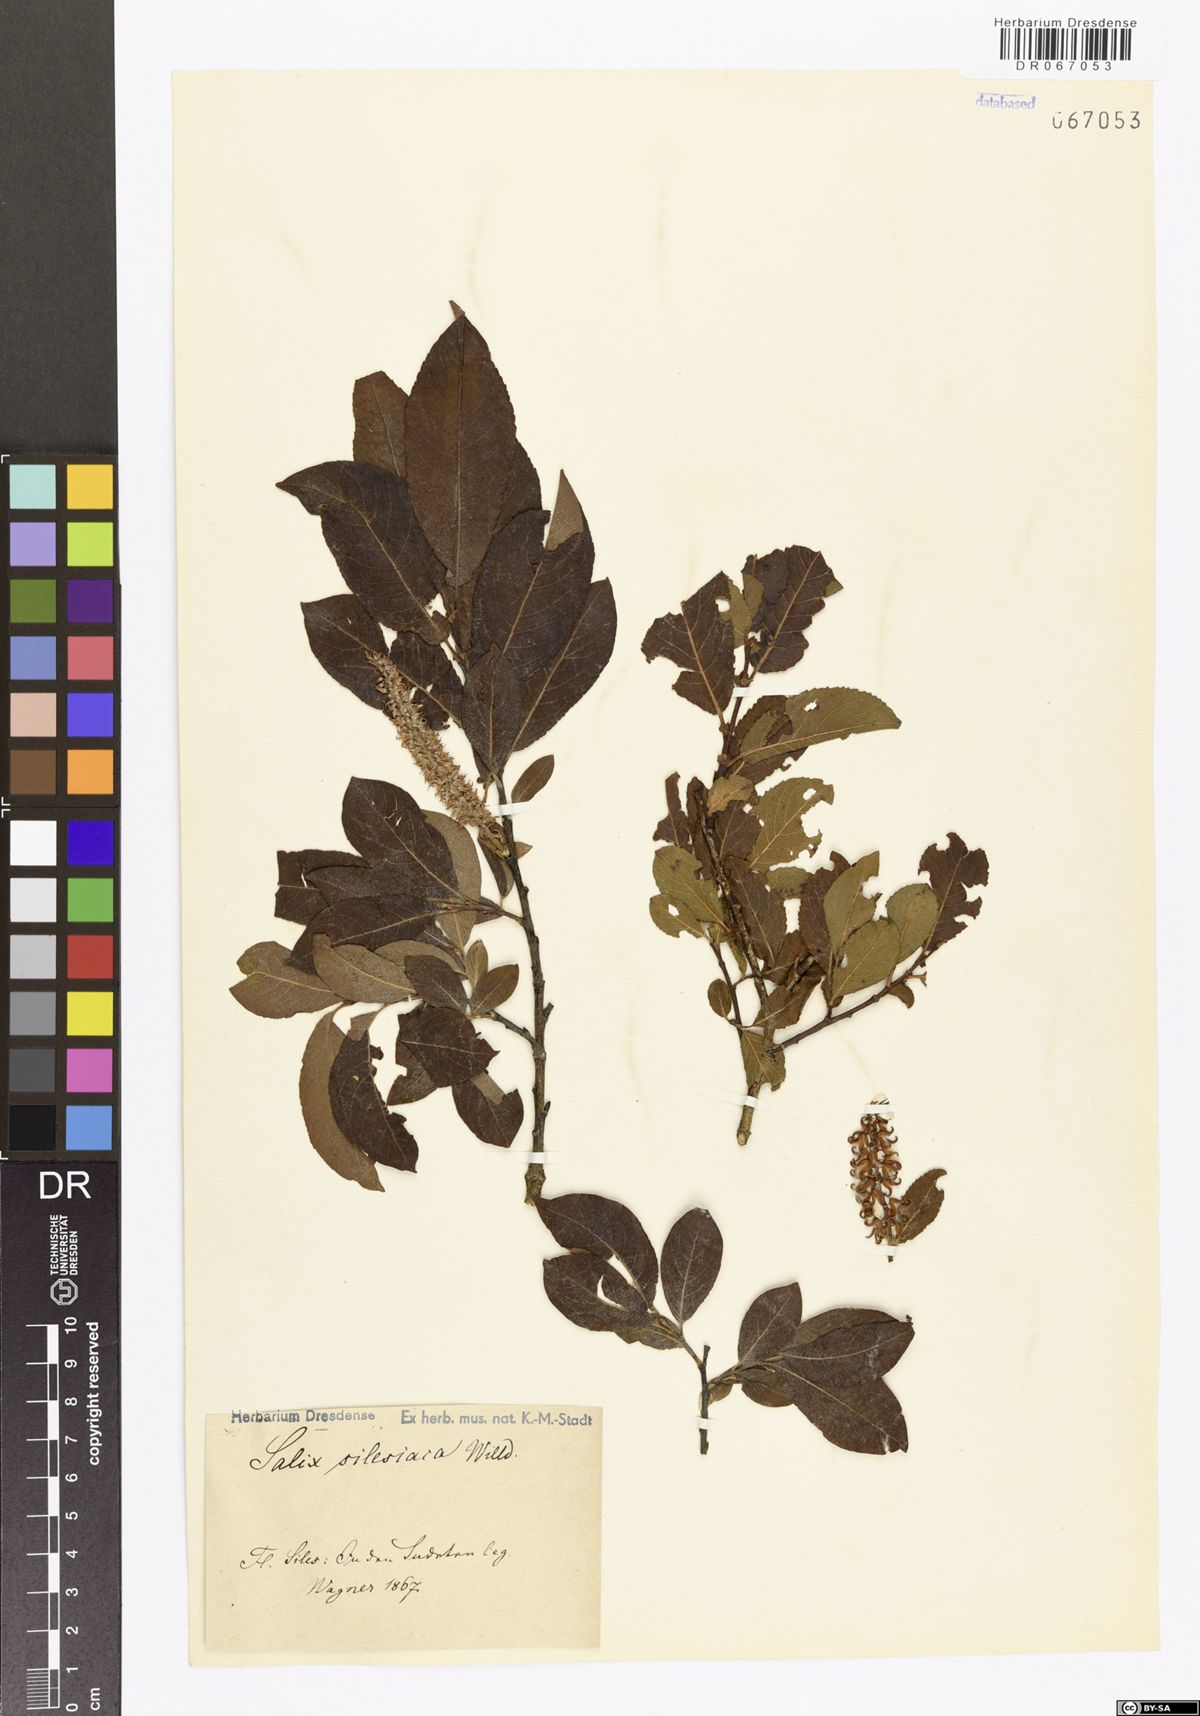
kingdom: Plantae
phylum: Tracheophyta
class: Magnoliopsida
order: Malpighiales
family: Salicaceae
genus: Salix
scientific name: Salix silesiaca
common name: Silesian willow
